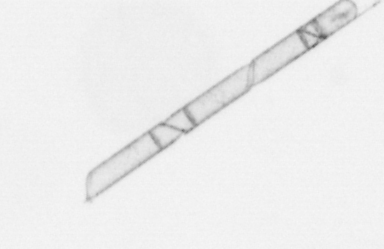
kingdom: Chromista
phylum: Ochrophyta
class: Bacillariophyceae
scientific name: Bacillariophyceae
